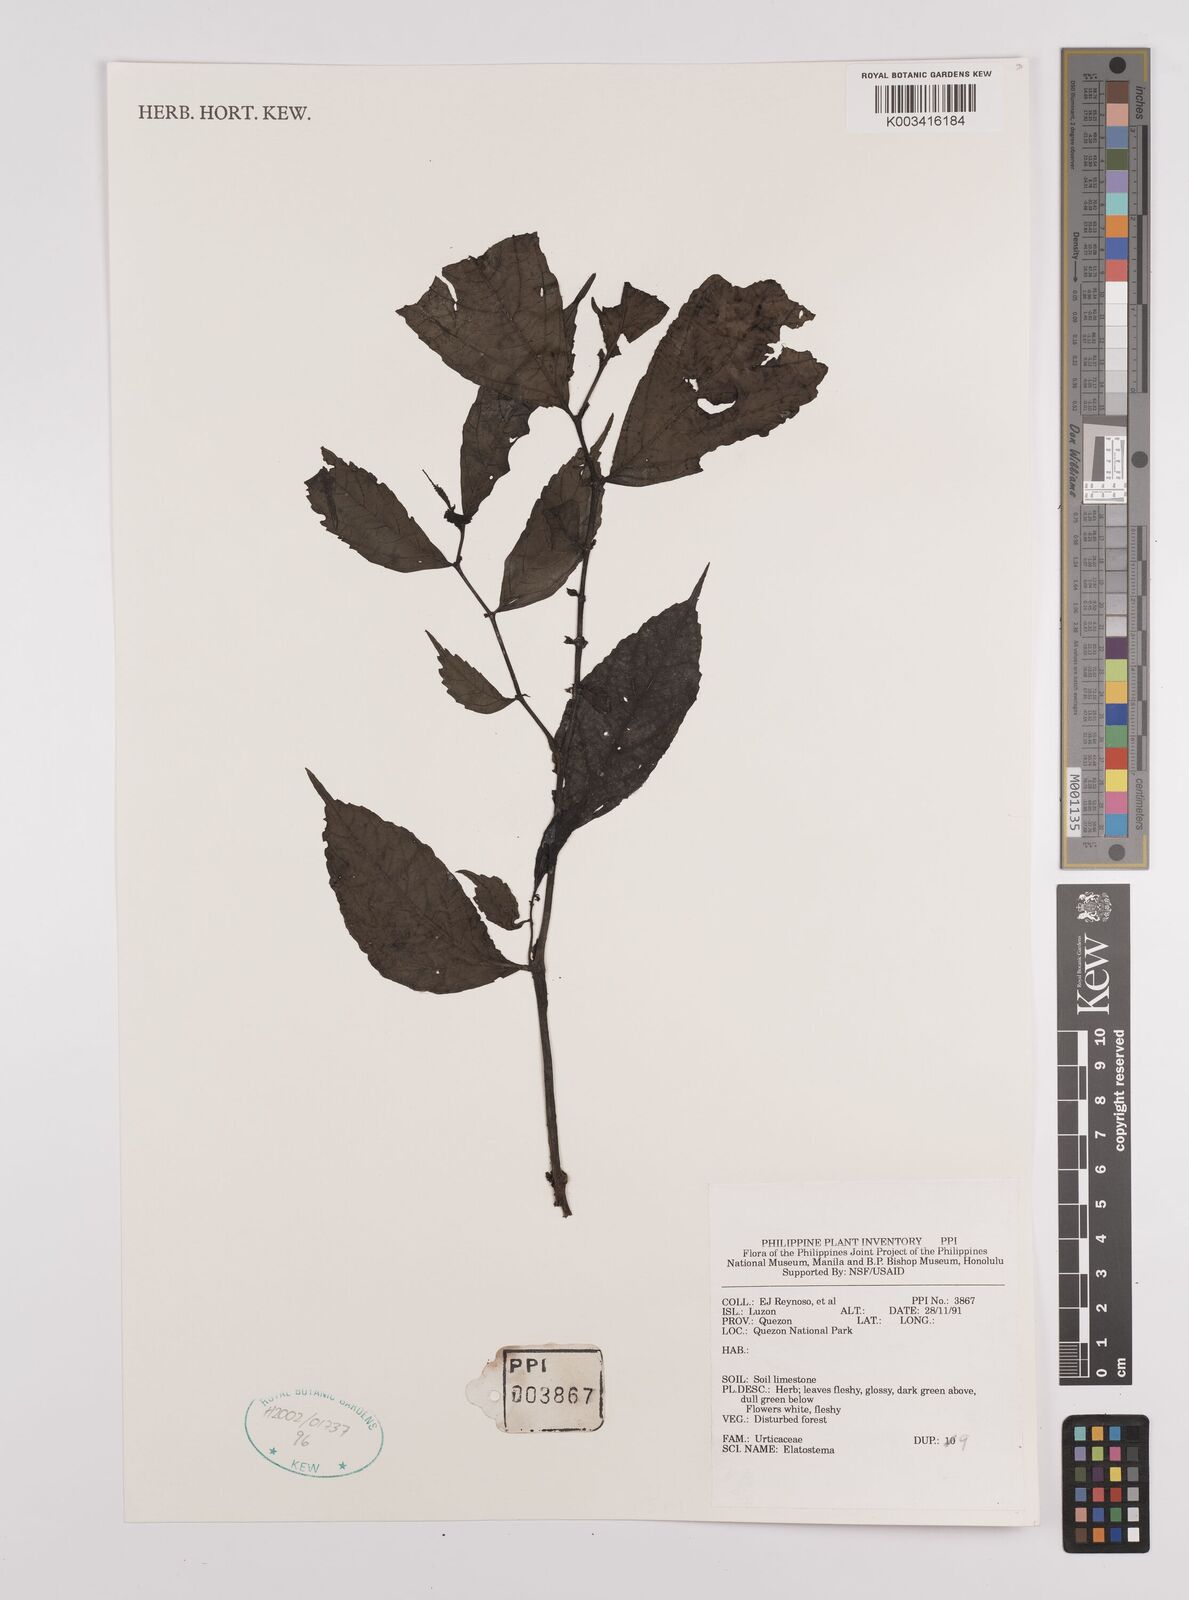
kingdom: Plantae
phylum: Tracheophyta
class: Magnoliopsida
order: Rosales
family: Urticaceae
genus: Elatostema
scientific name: Elatostema
